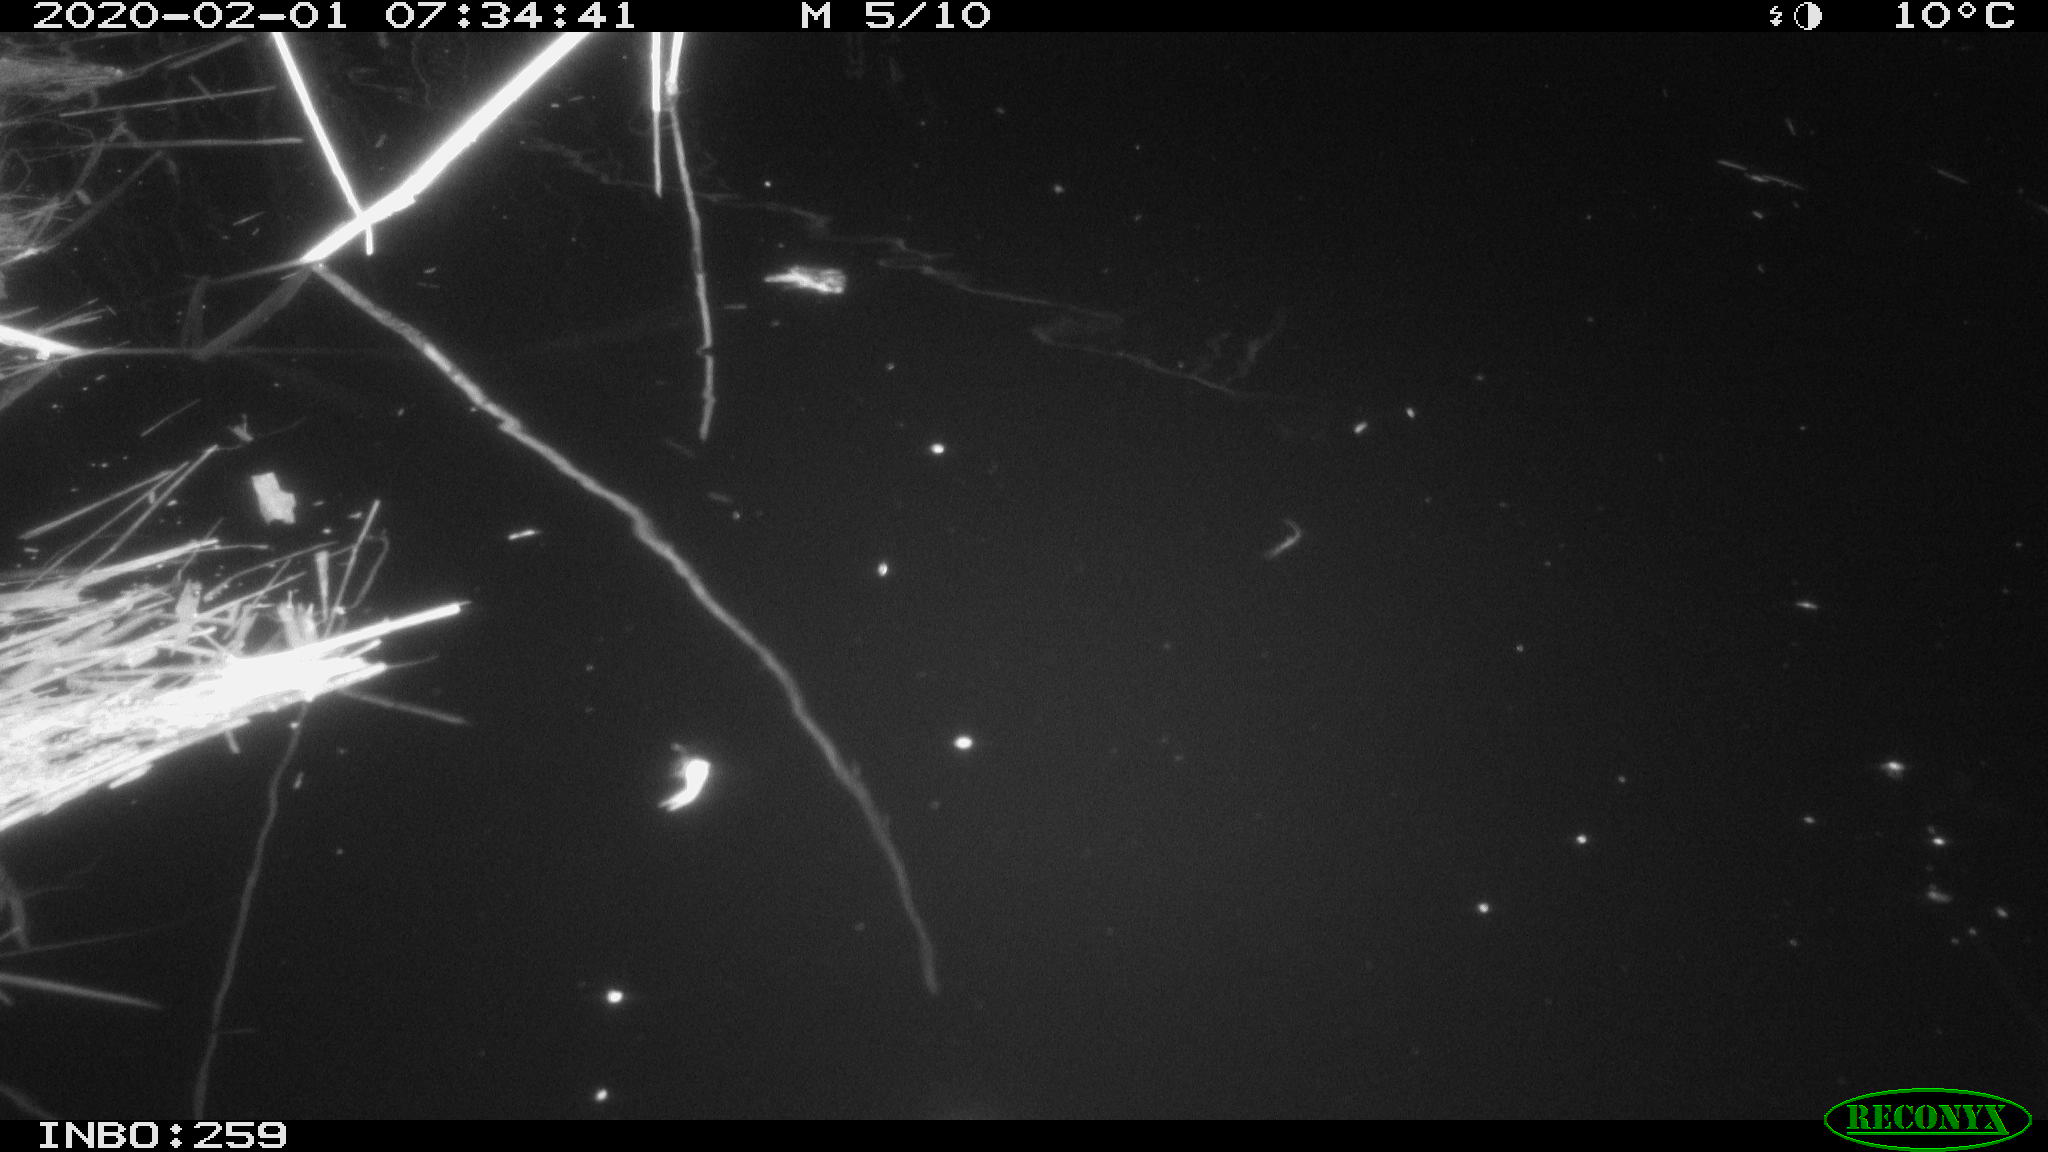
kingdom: Animalia
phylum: Chordata
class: Aves
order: Gruiformes
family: Rallidae
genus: Gallinula
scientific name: Gallinula chloropus
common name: Common moorhen
